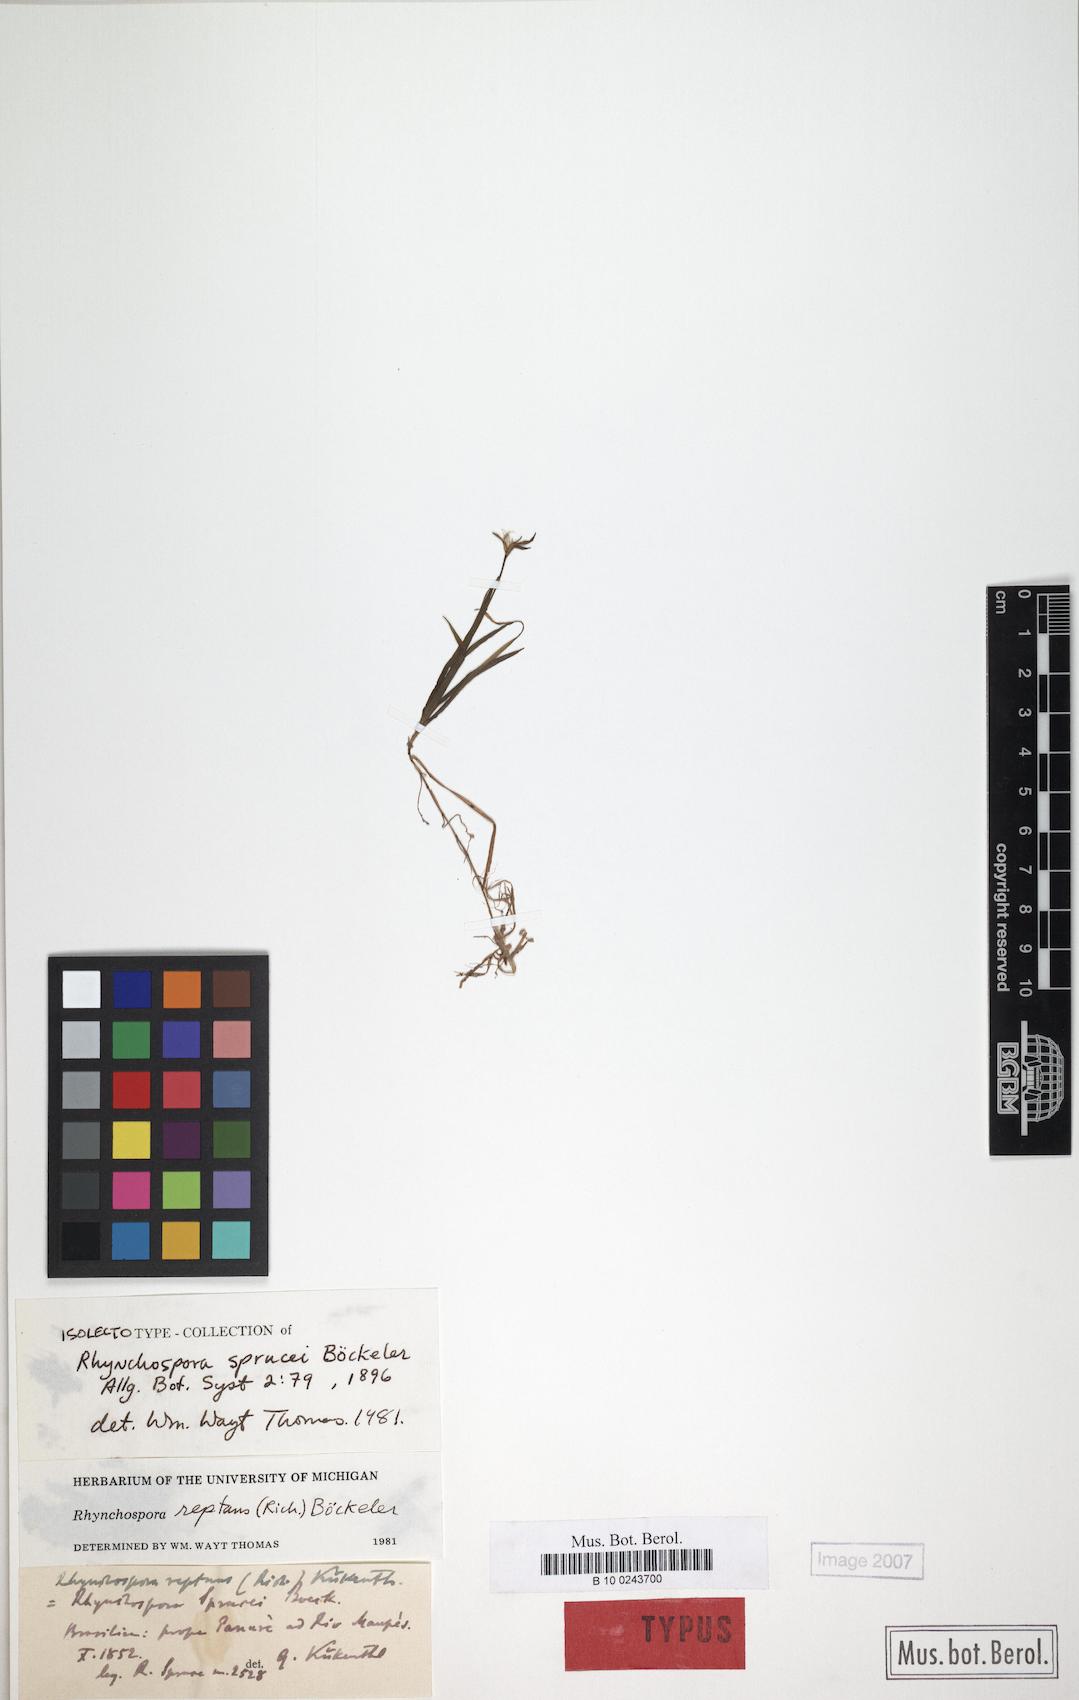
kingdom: Plantae
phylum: Tracheophyta
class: Liliopsida
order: Poales
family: Cyperaceae
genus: Rhynchospora
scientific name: Rhynchospora reptans
